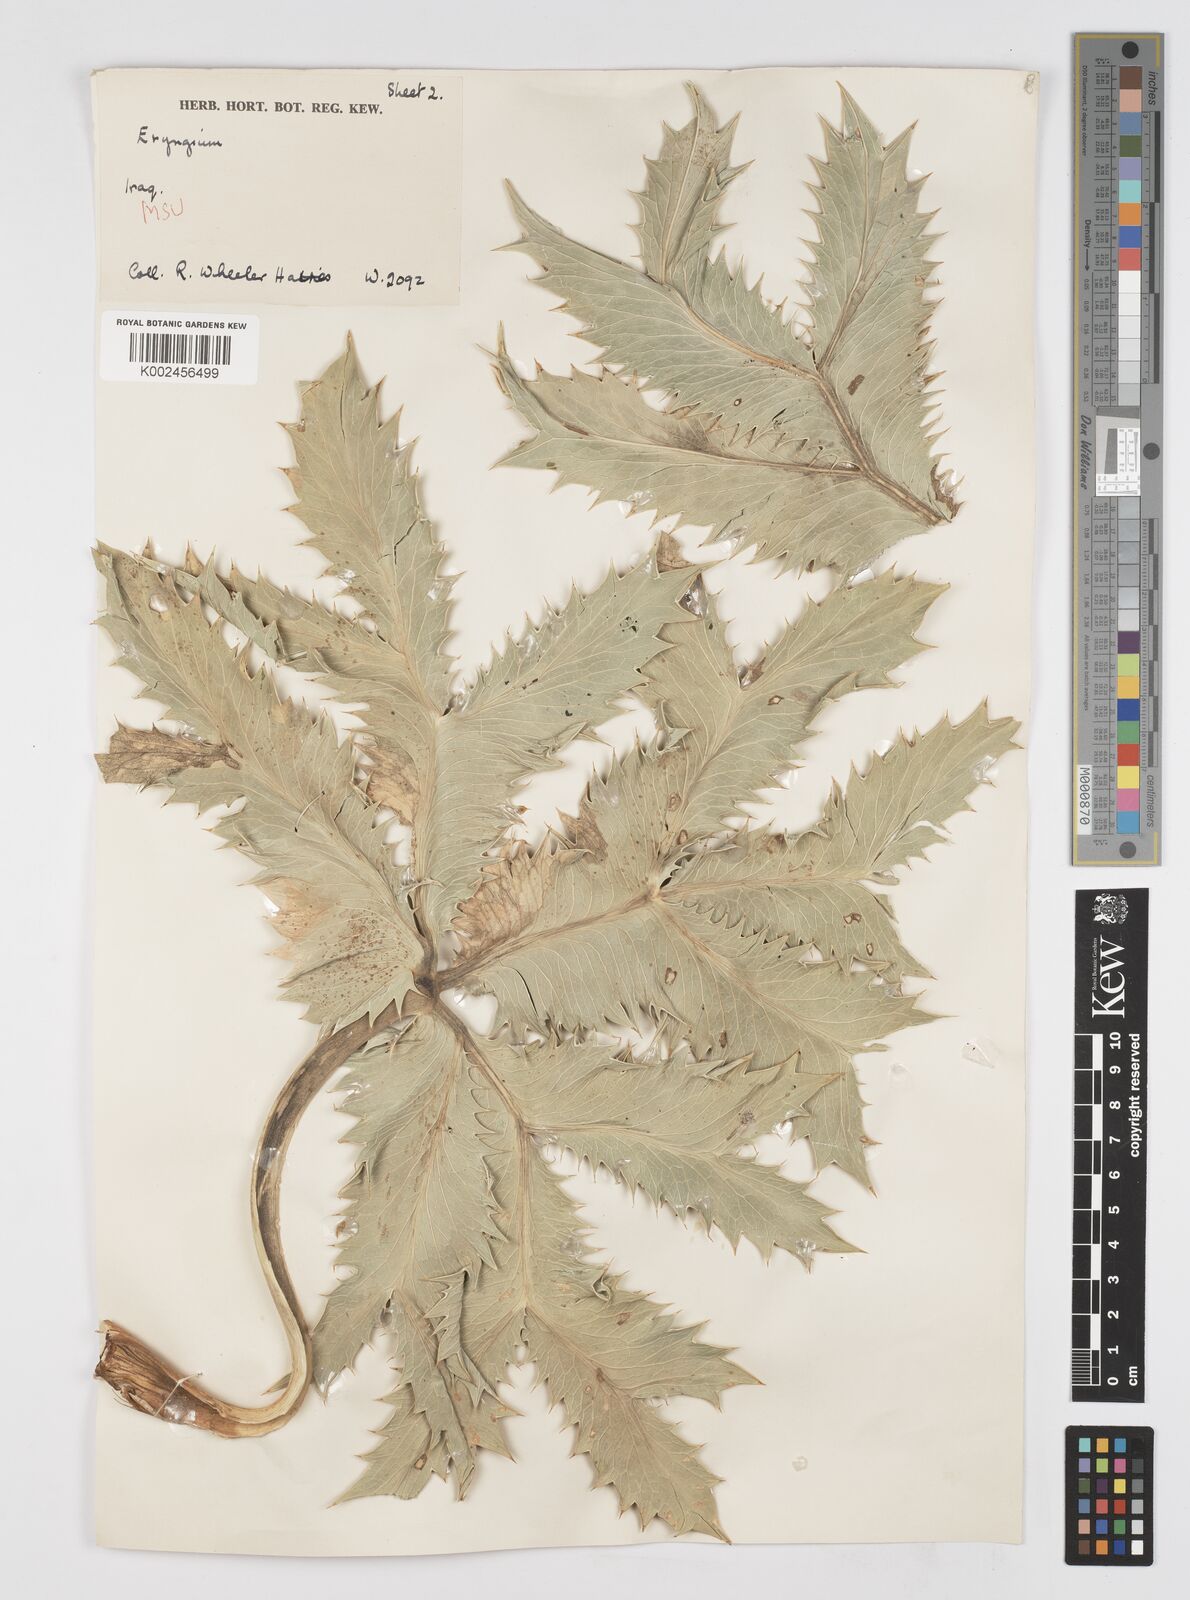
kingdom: Plantae
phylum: Tracheophyta
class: Magnoliopsida
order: Apiales
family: Apiaceae
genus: Eryngium
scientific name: Eryngium thyrsoideum
